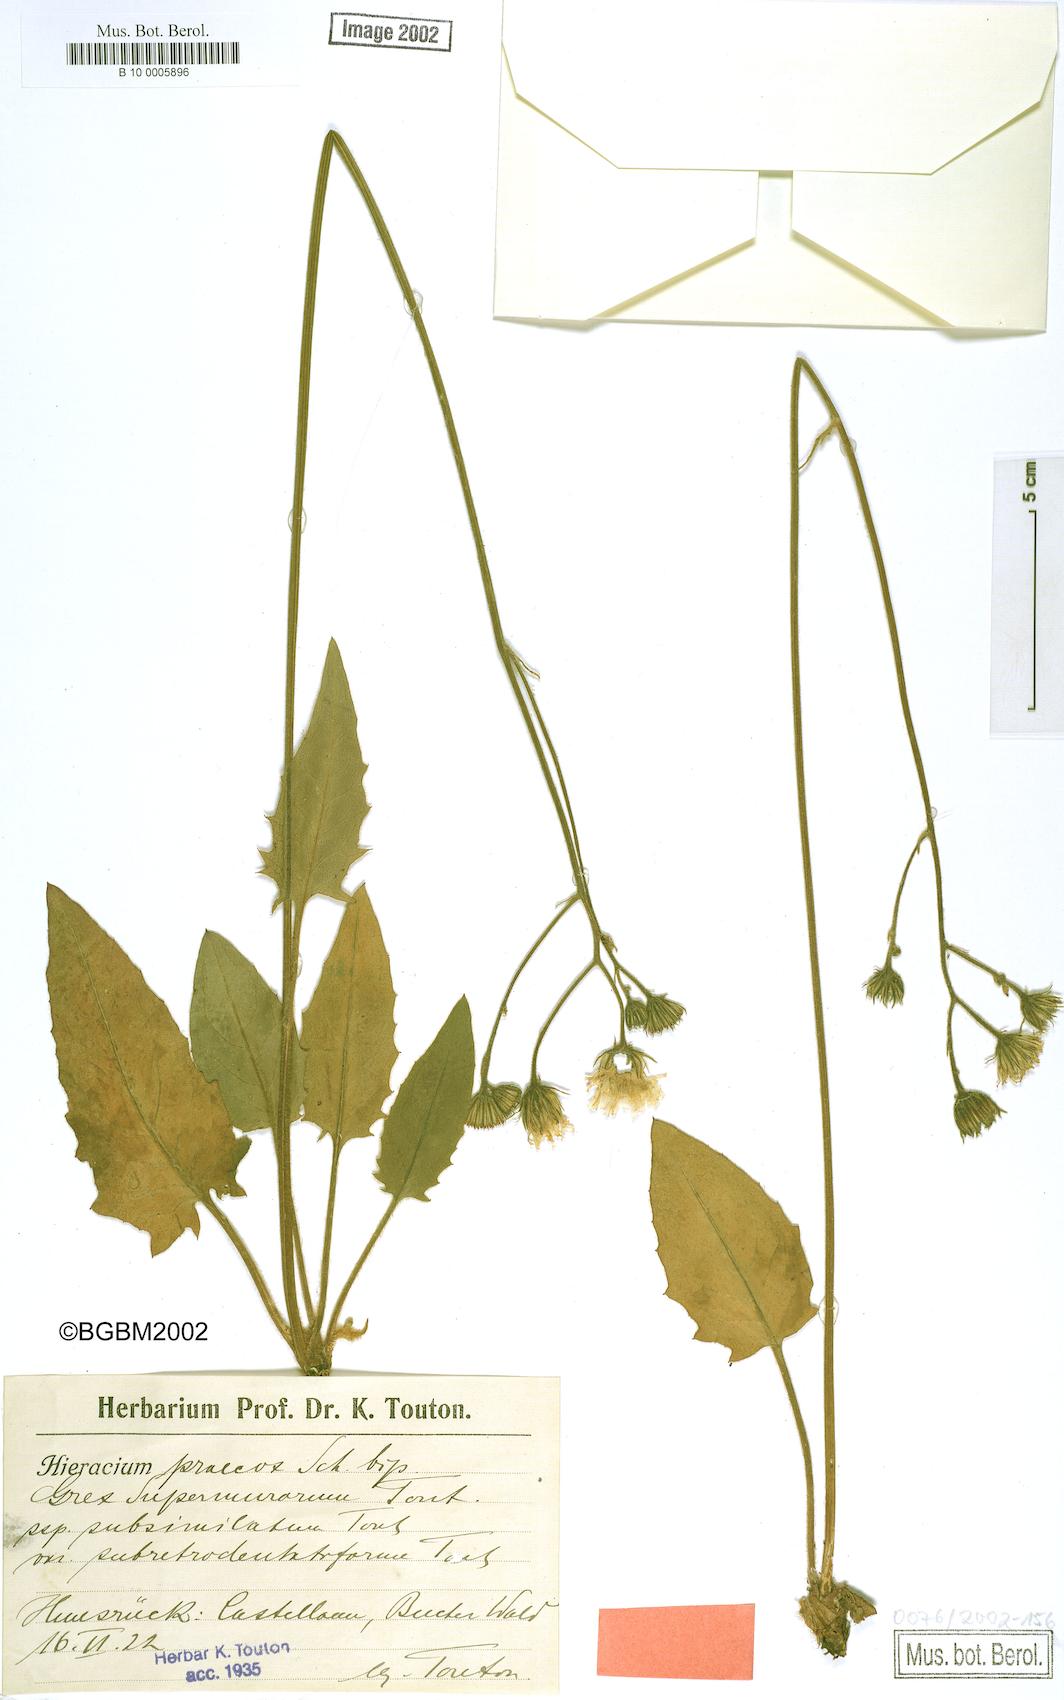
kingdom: Plantae
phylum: Tracheophyta
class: Magnoliopsida
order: Asterales
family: Asteraceae
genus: Hieracium
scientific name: Hieracium praecox
